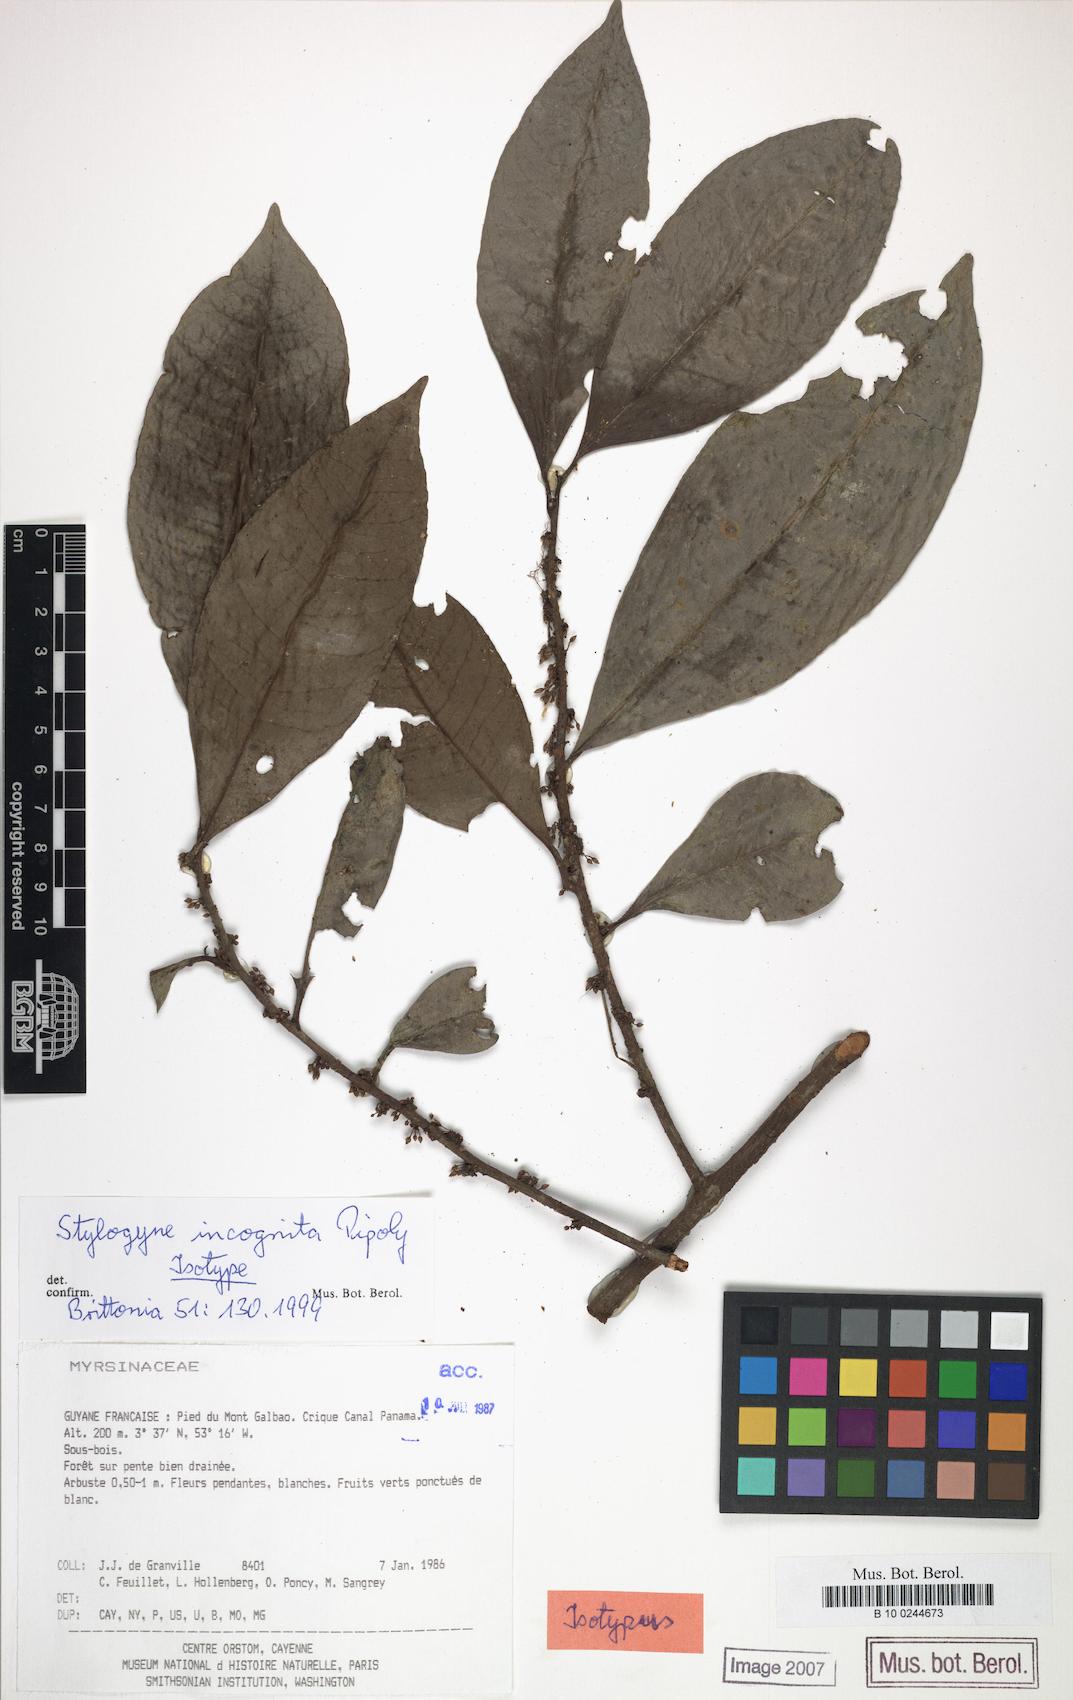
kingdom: Plantae
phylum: Tracheophyta
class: Magnoliopsida
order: Ericales
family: Primulaceae
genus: Stylogyne
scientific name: Stylogyne incognita
